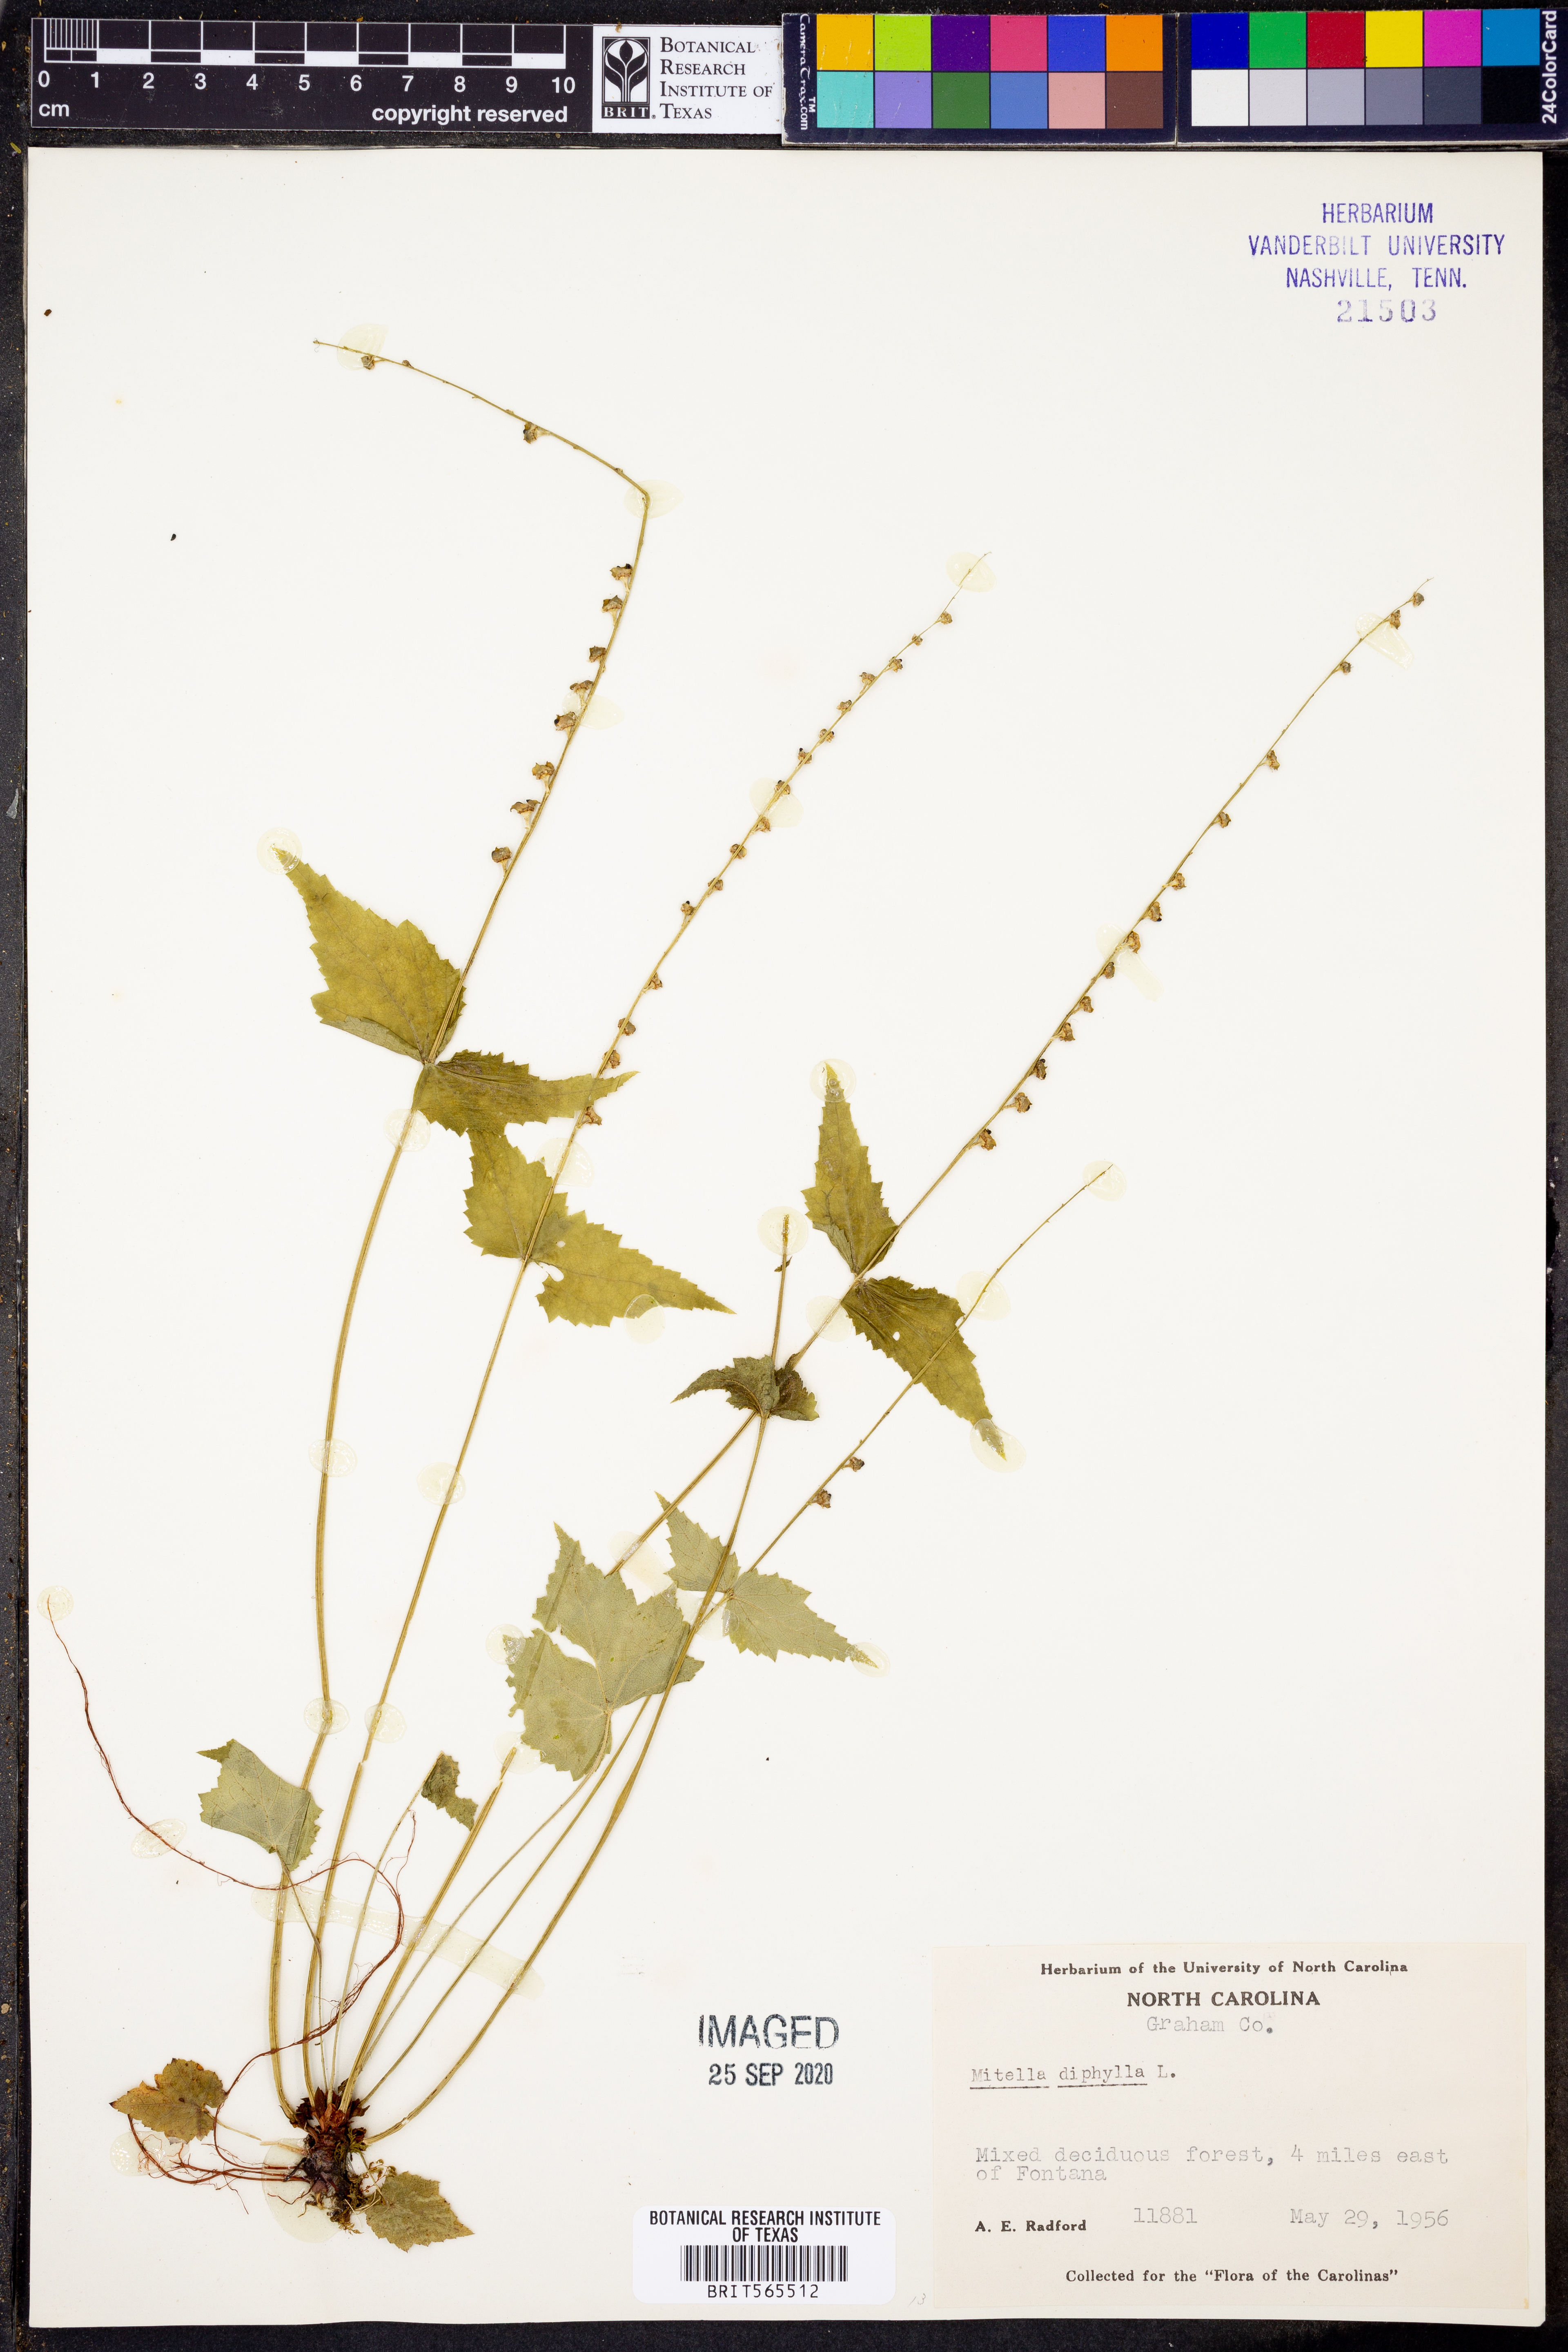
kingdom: Plantae
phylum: Tracheophyta
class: Magnoliopsida
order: Saxifragales
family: Saxifragaceae
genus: Mitella
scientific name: Mitella diphylla
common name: Coolwort
